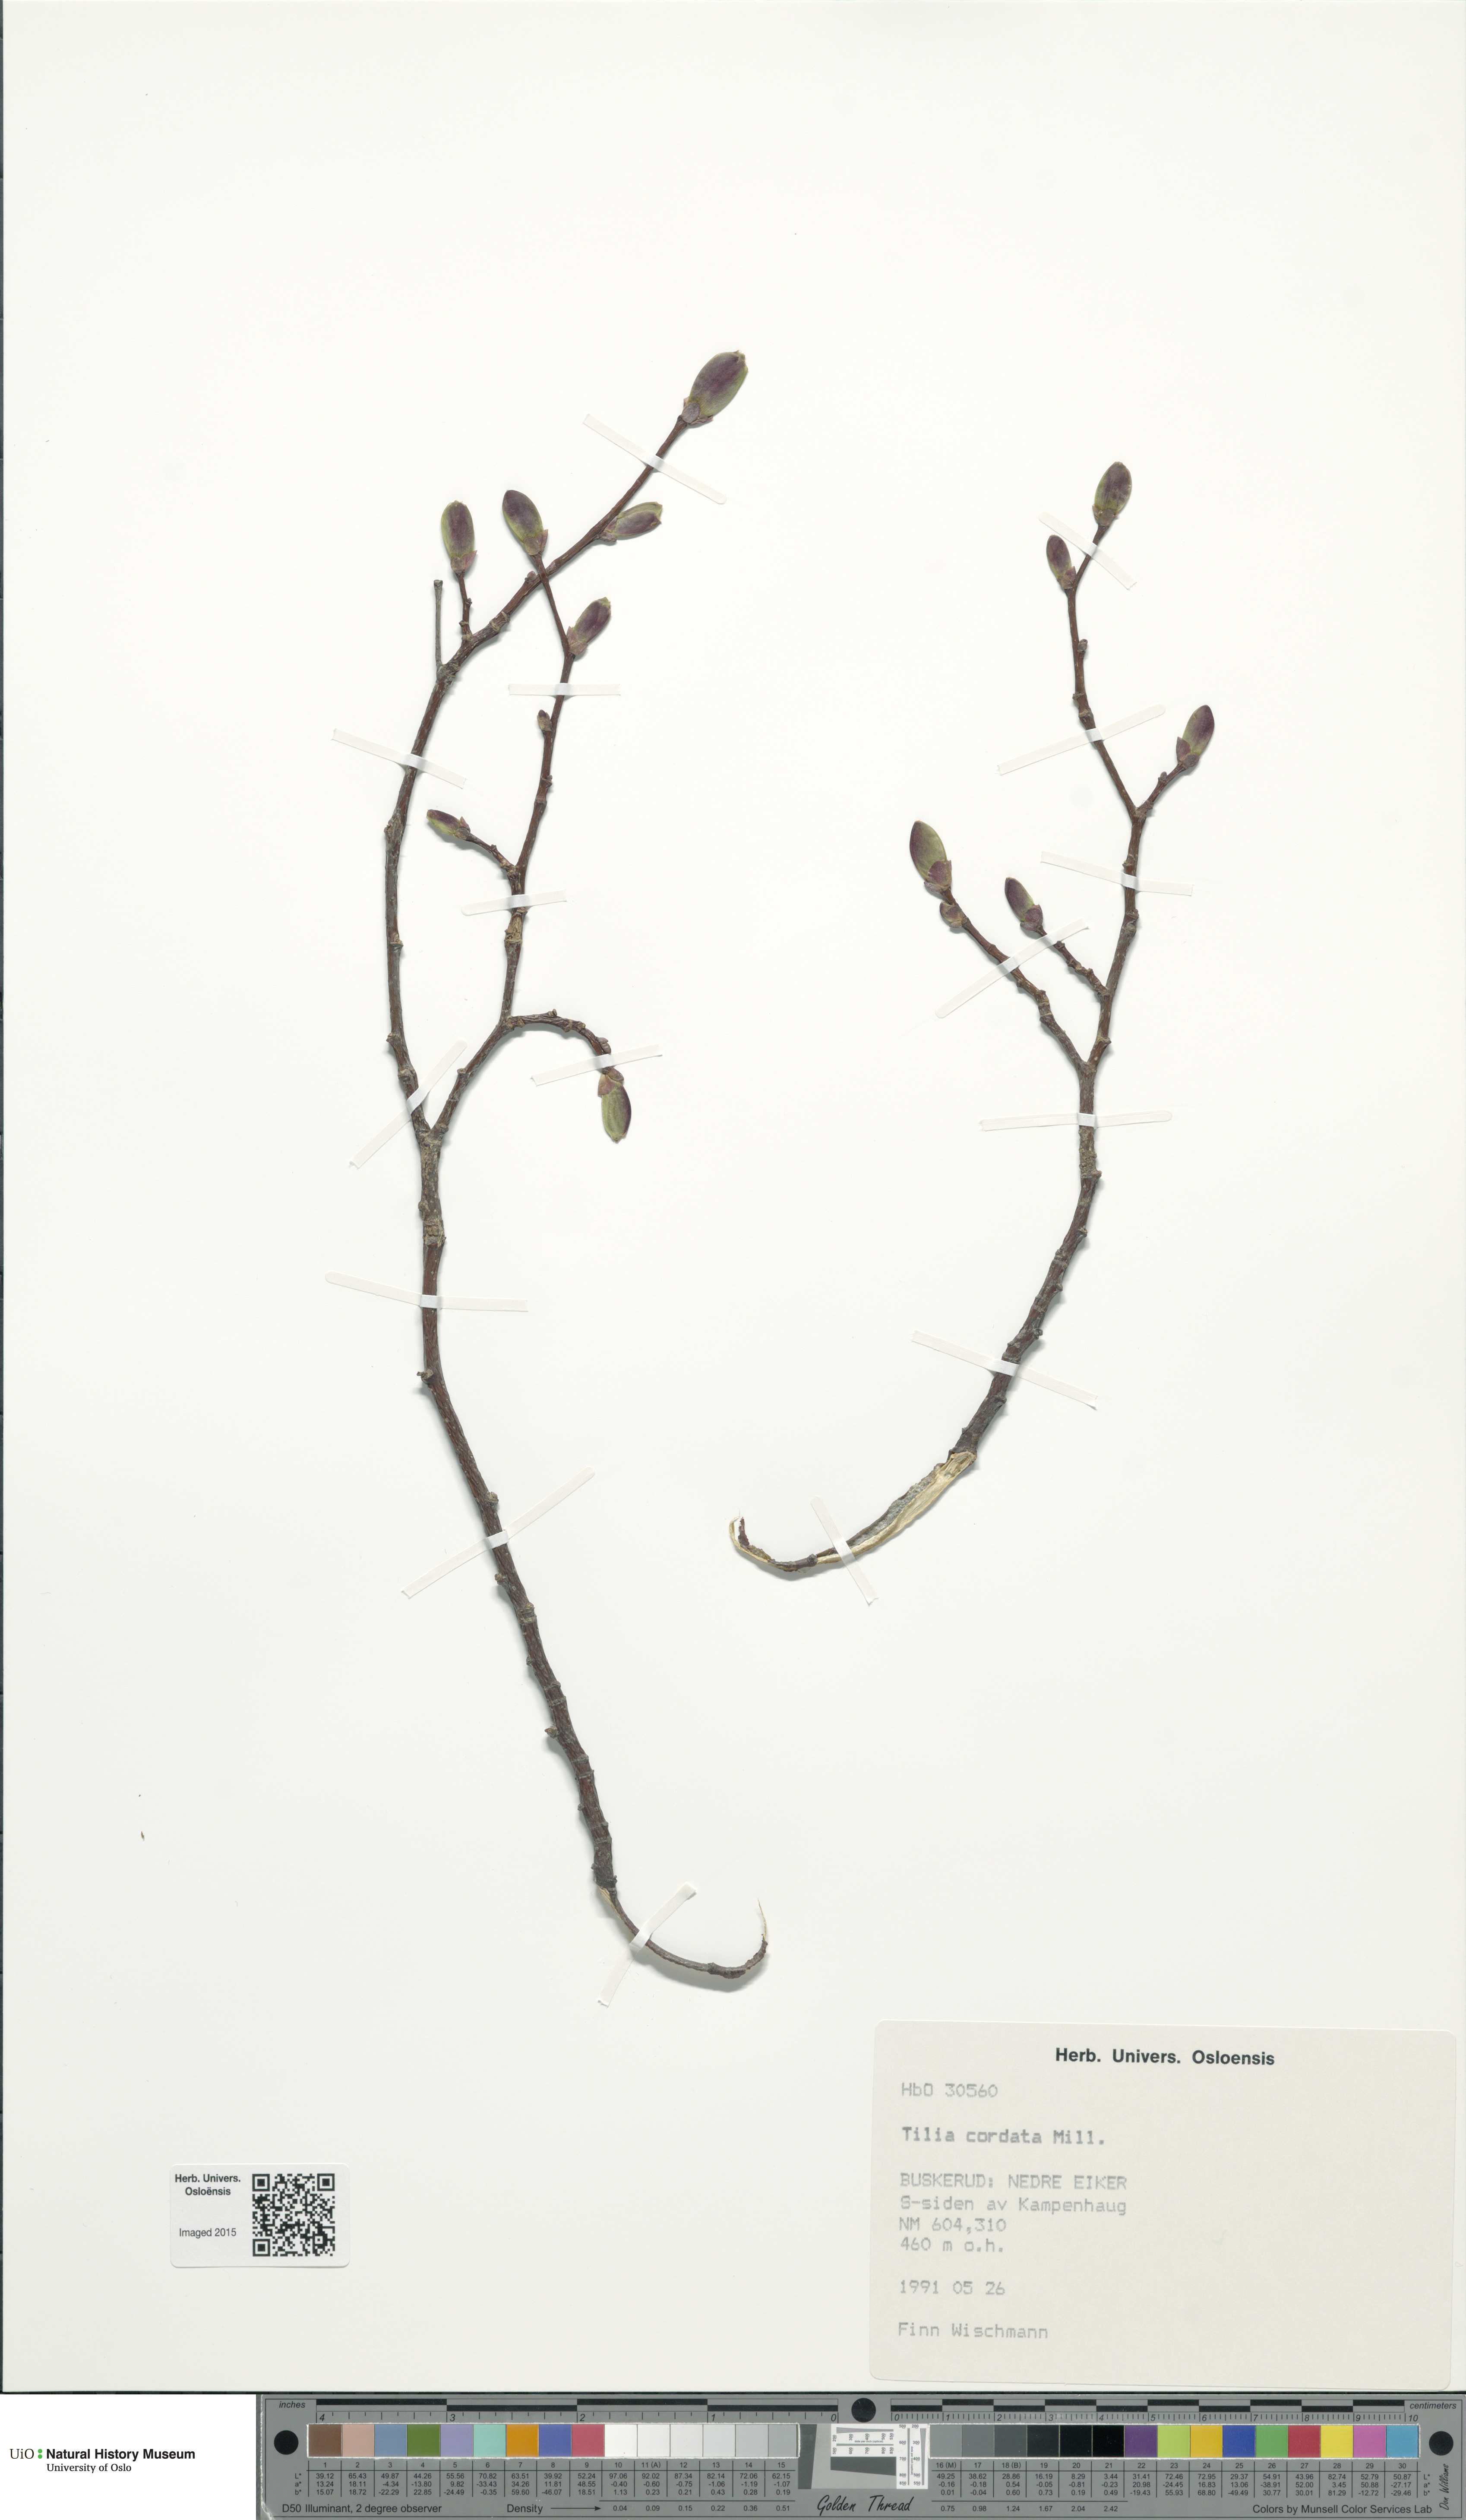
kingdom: Plantae
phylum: Tracheophyta
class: Magnoliopsida
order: Malvales
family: Malvaceae
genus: Tilia
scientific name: Tilia cordata
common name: Small-leaved lime
